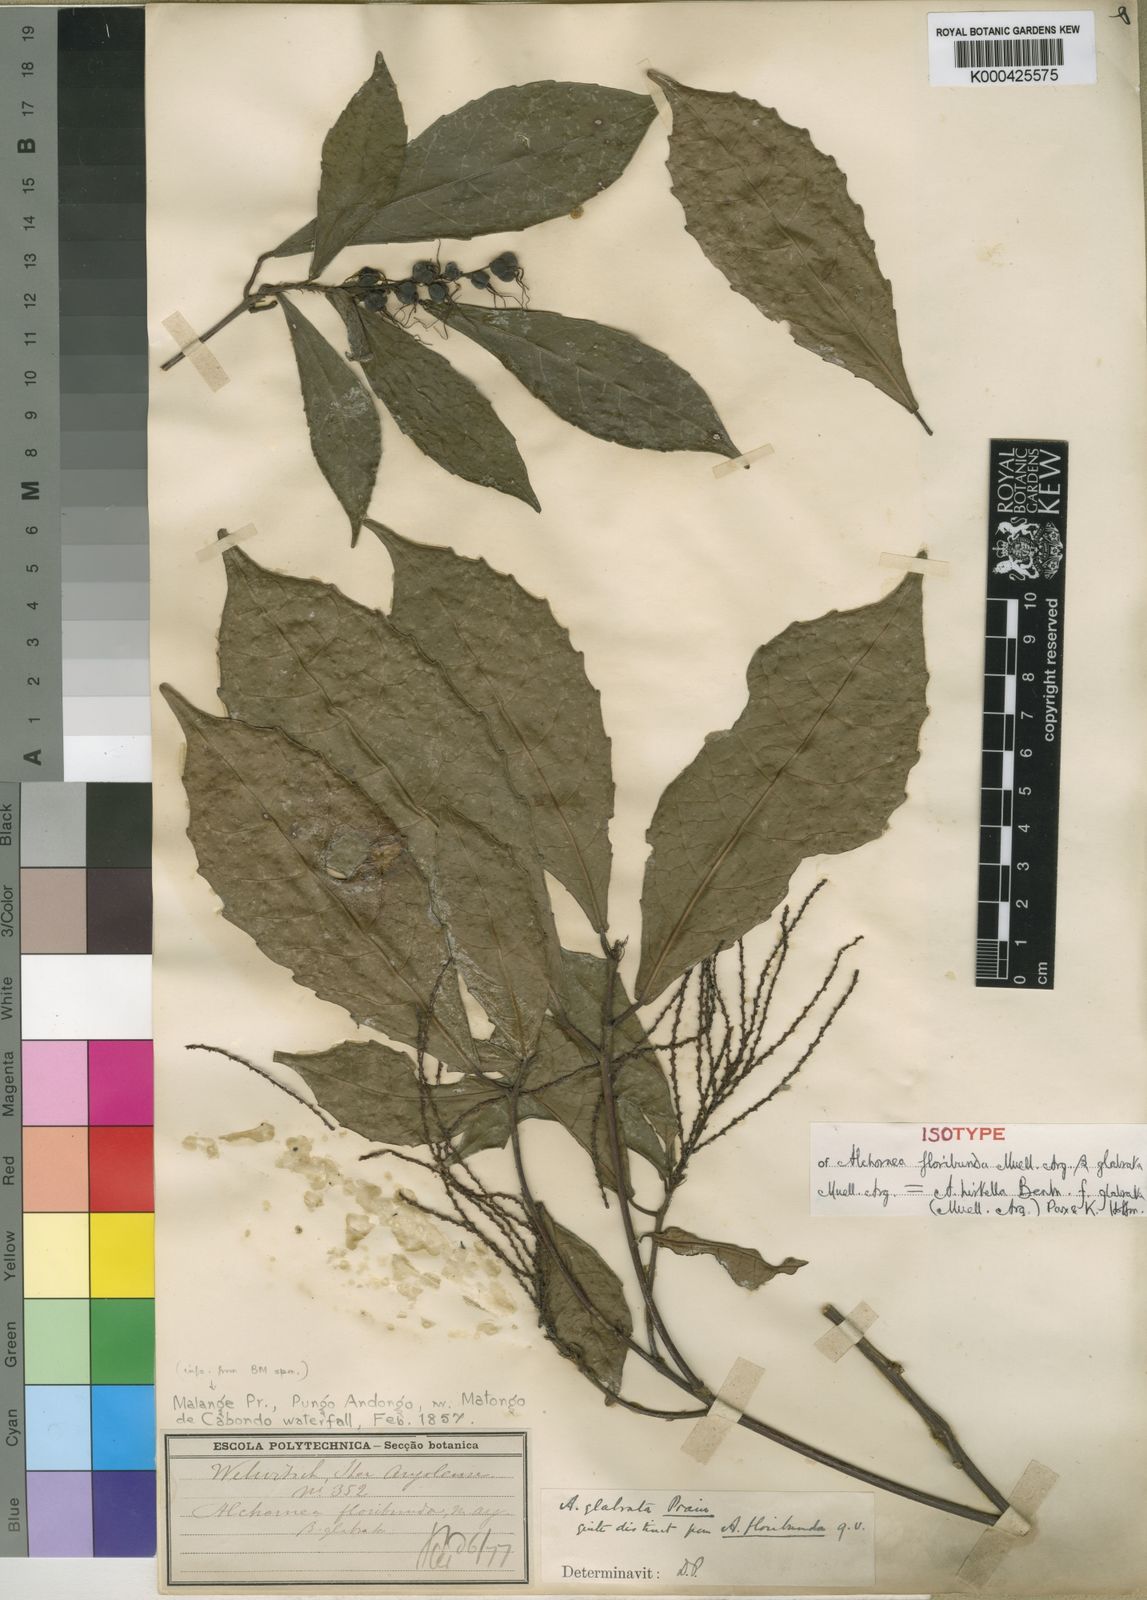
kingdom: Plantae
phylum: Tracheophyta
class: Magnoliopsida
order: Malpighiales
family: Euphorbiaceae
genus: Alchornea
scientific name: Alchornea hirtella
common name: Forest bead-string
